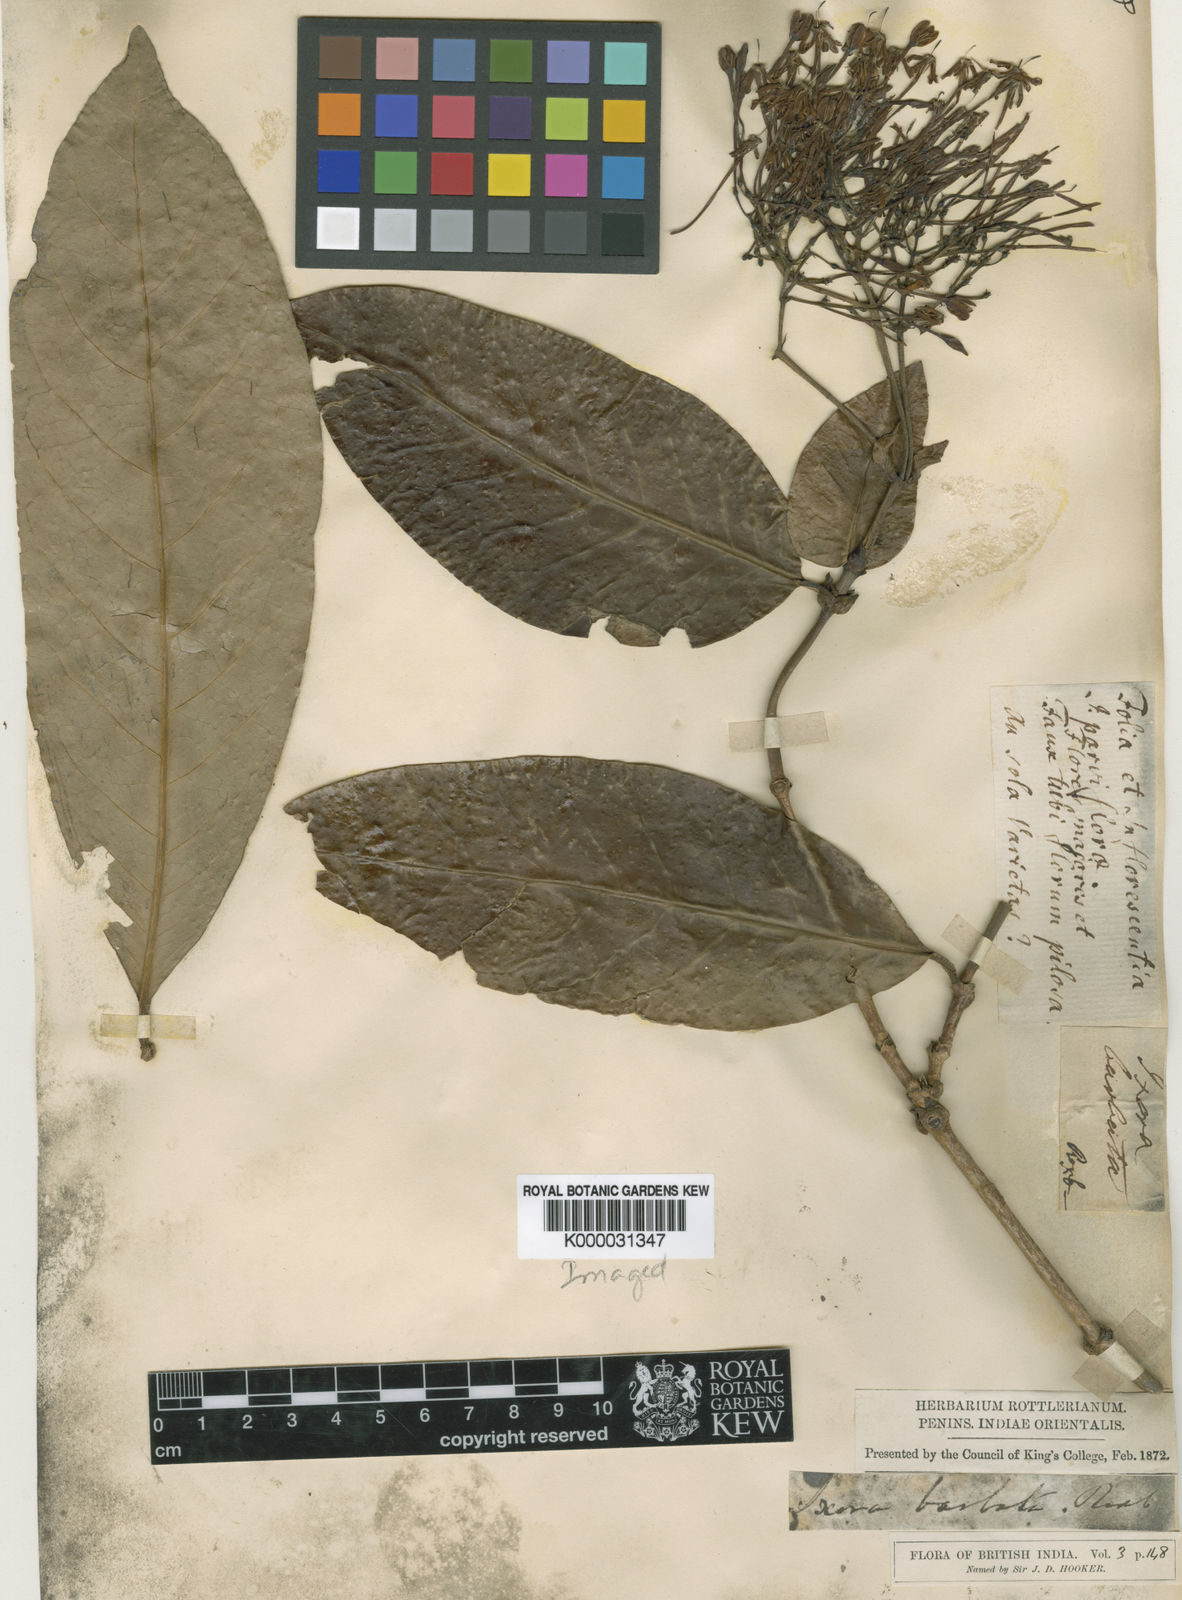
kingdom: Plantae
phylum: Tracheophyta
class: Magnoliopsida
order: Gentianales
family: Rubiaceae
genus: Ixora
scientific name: Ixora
